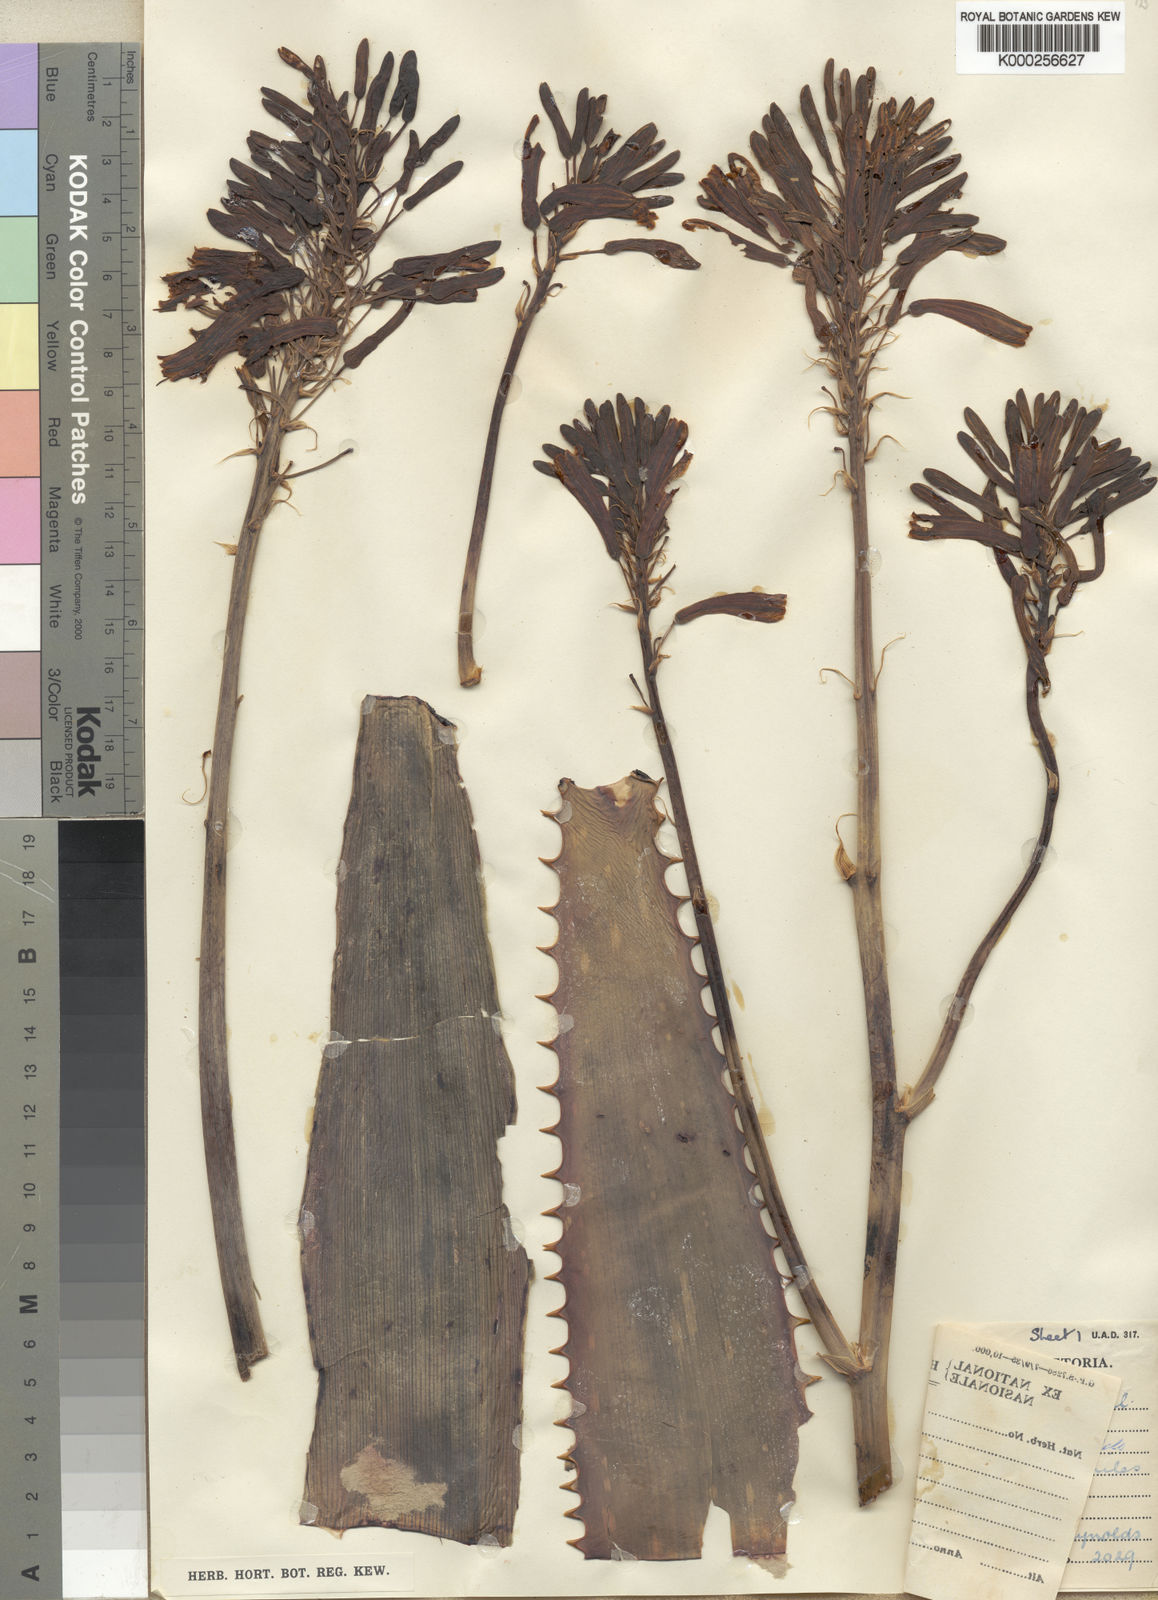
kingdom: Plantae
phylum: Tracheophyta
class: Liliopsida
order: Asparagales
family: Asphodelaceae
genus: Aloe
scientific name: Aloe mudenensis
